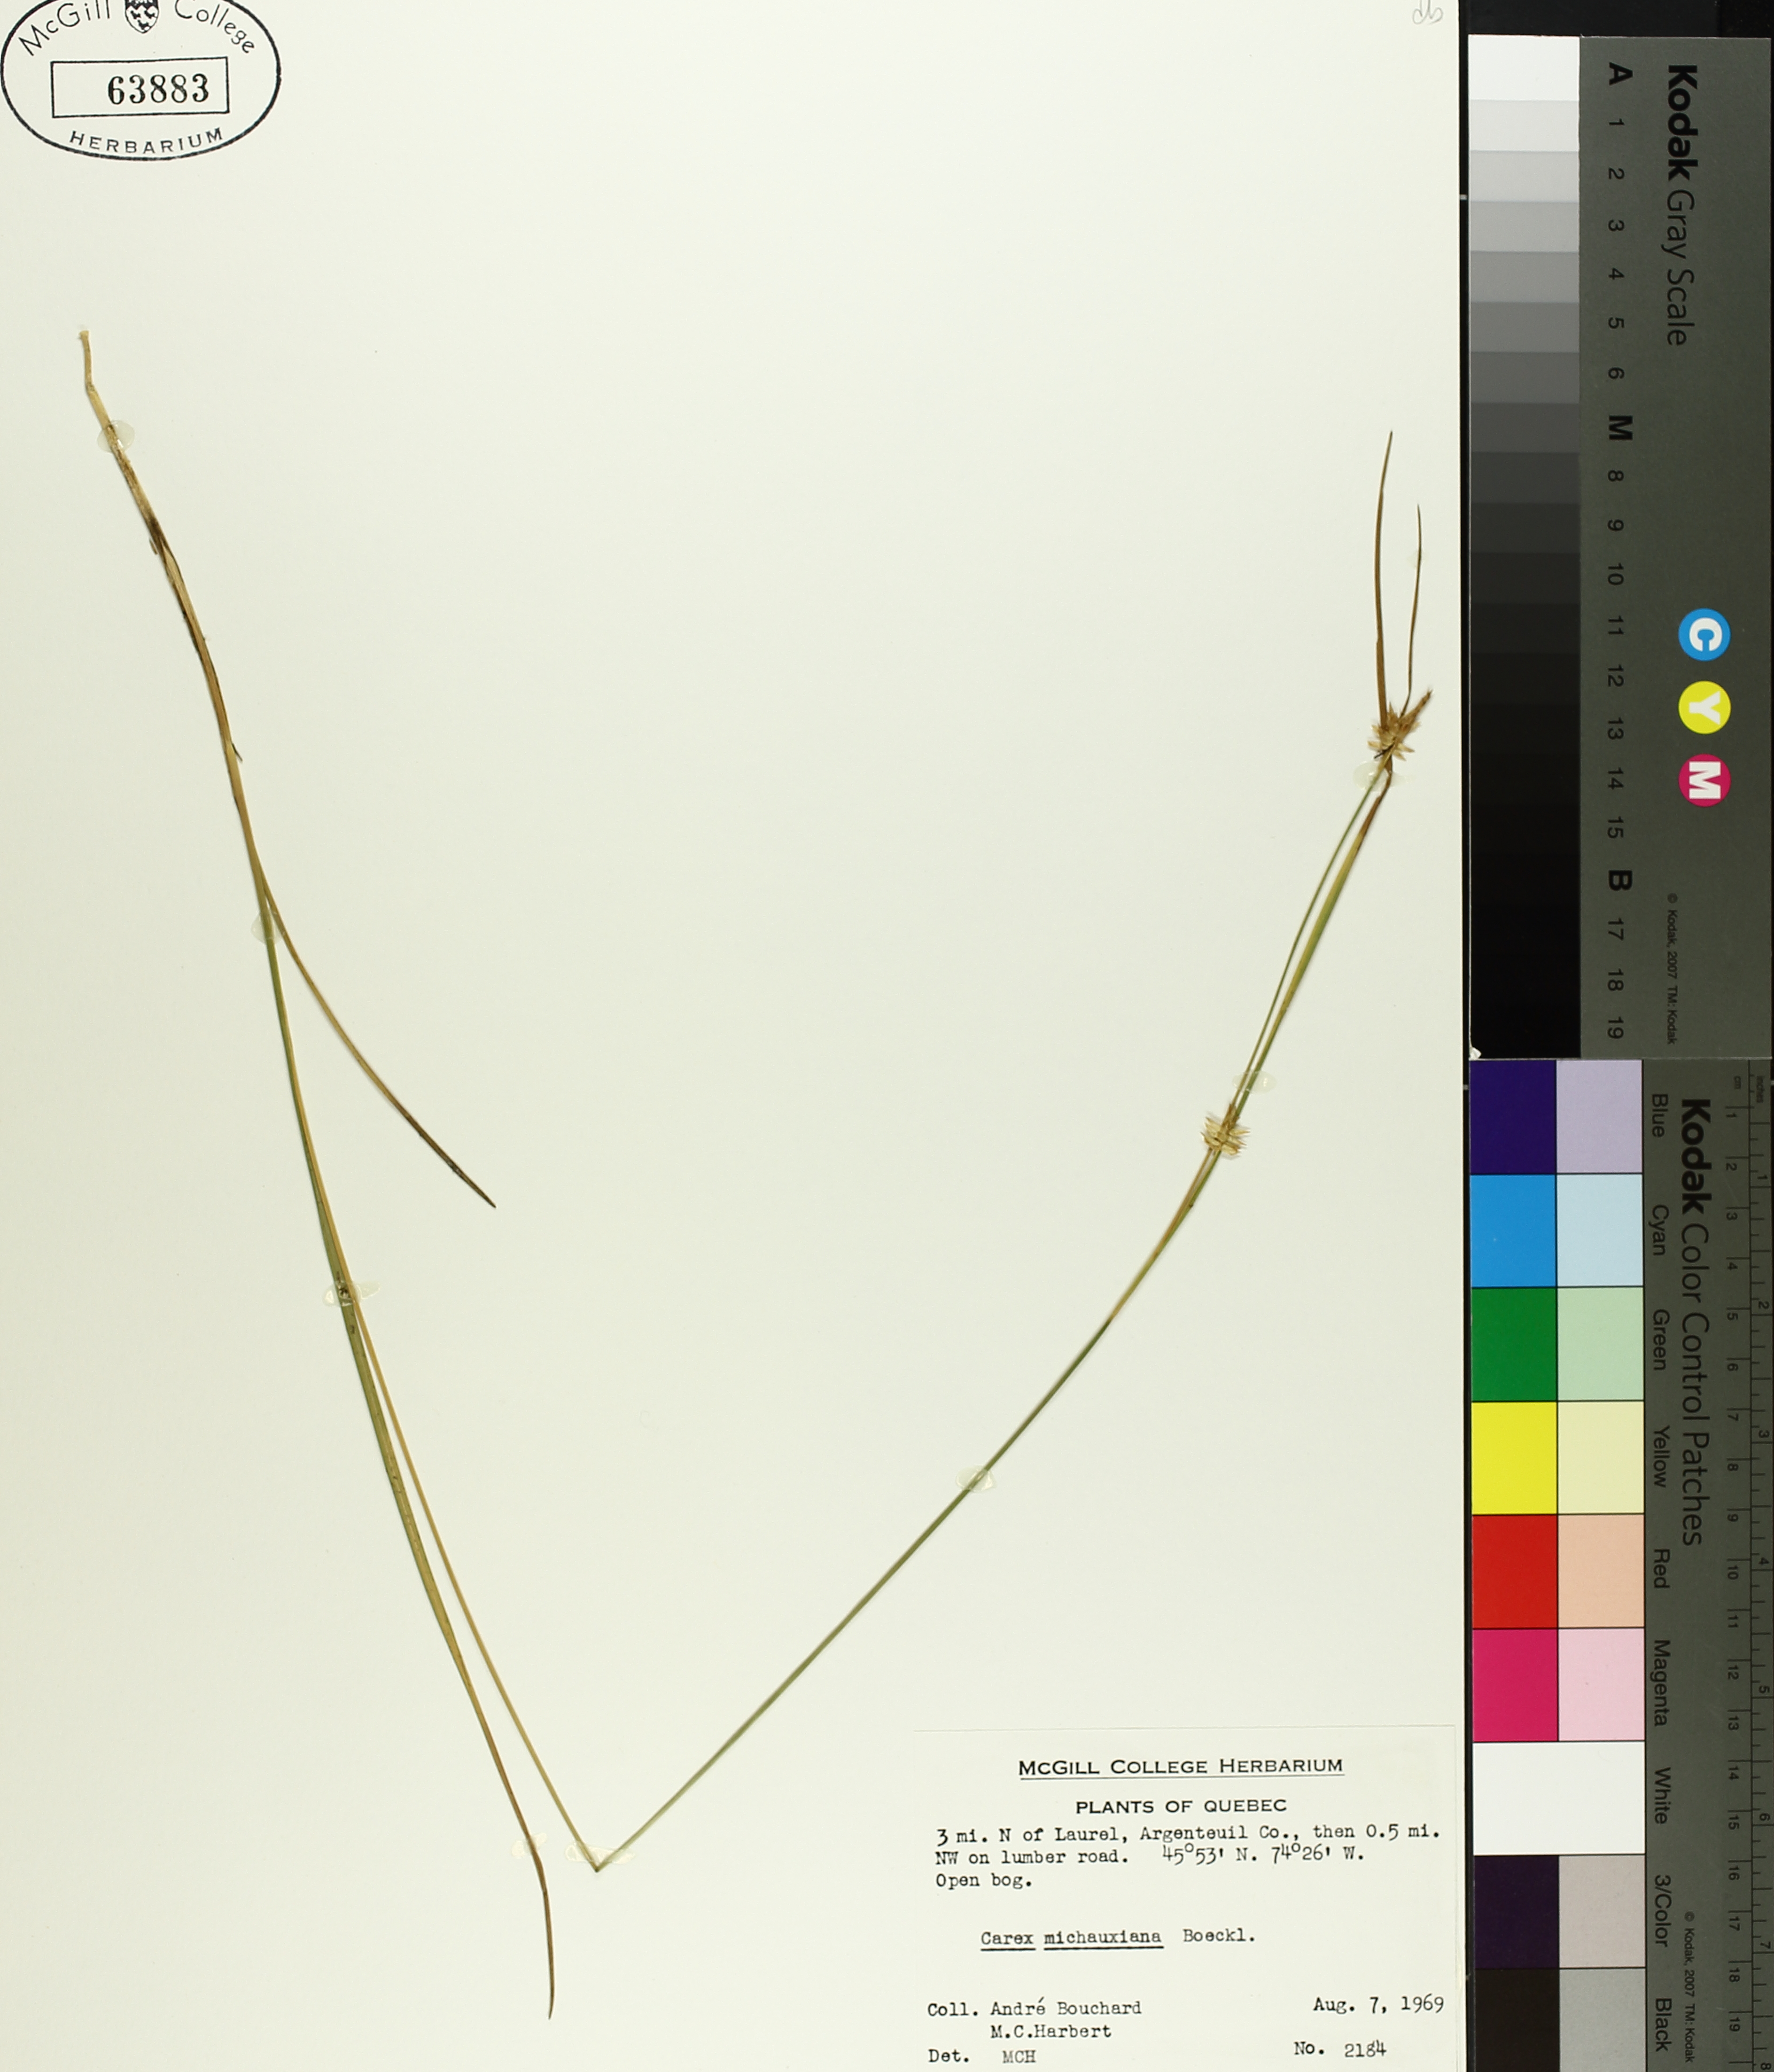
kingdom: Plantae
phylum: Tracheophyta
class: Liliopsida
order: Poales
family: Cyperaceae
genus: Carex
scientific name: Carex michauxiana
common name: Michaux's sedge
